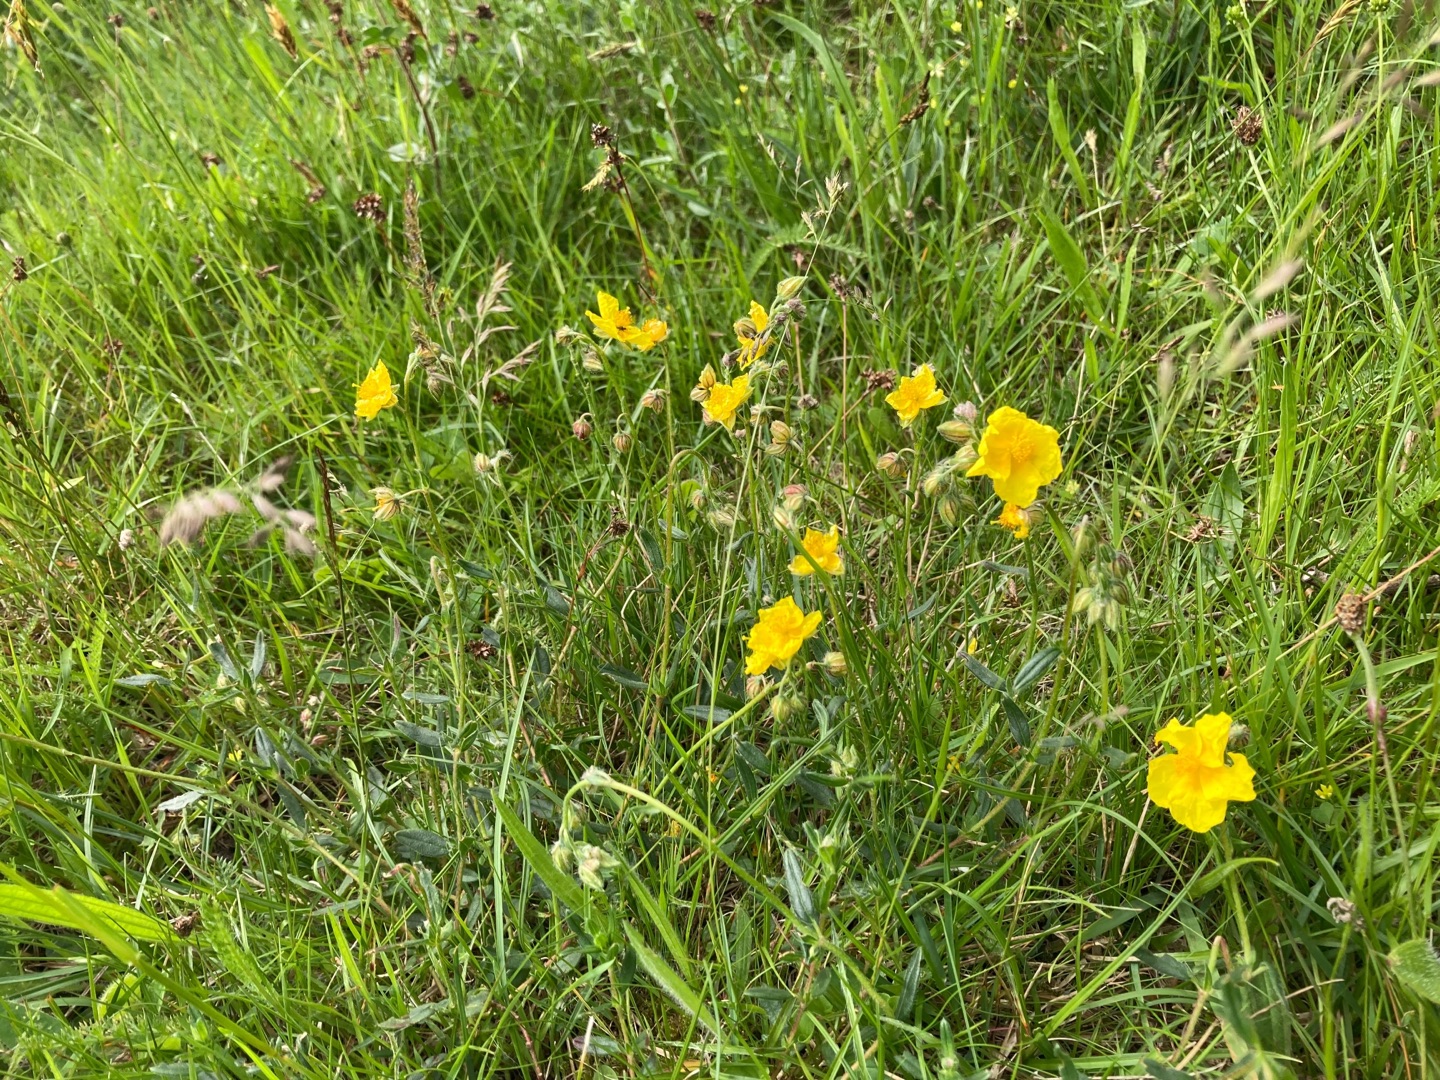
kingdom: Plantae
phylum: Tracheophyta
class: Magnoliopsida
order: Malvales
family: Cistaceae
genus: Helianthemum
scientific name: Helianthemum nummularium
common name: Bakke-soløje
